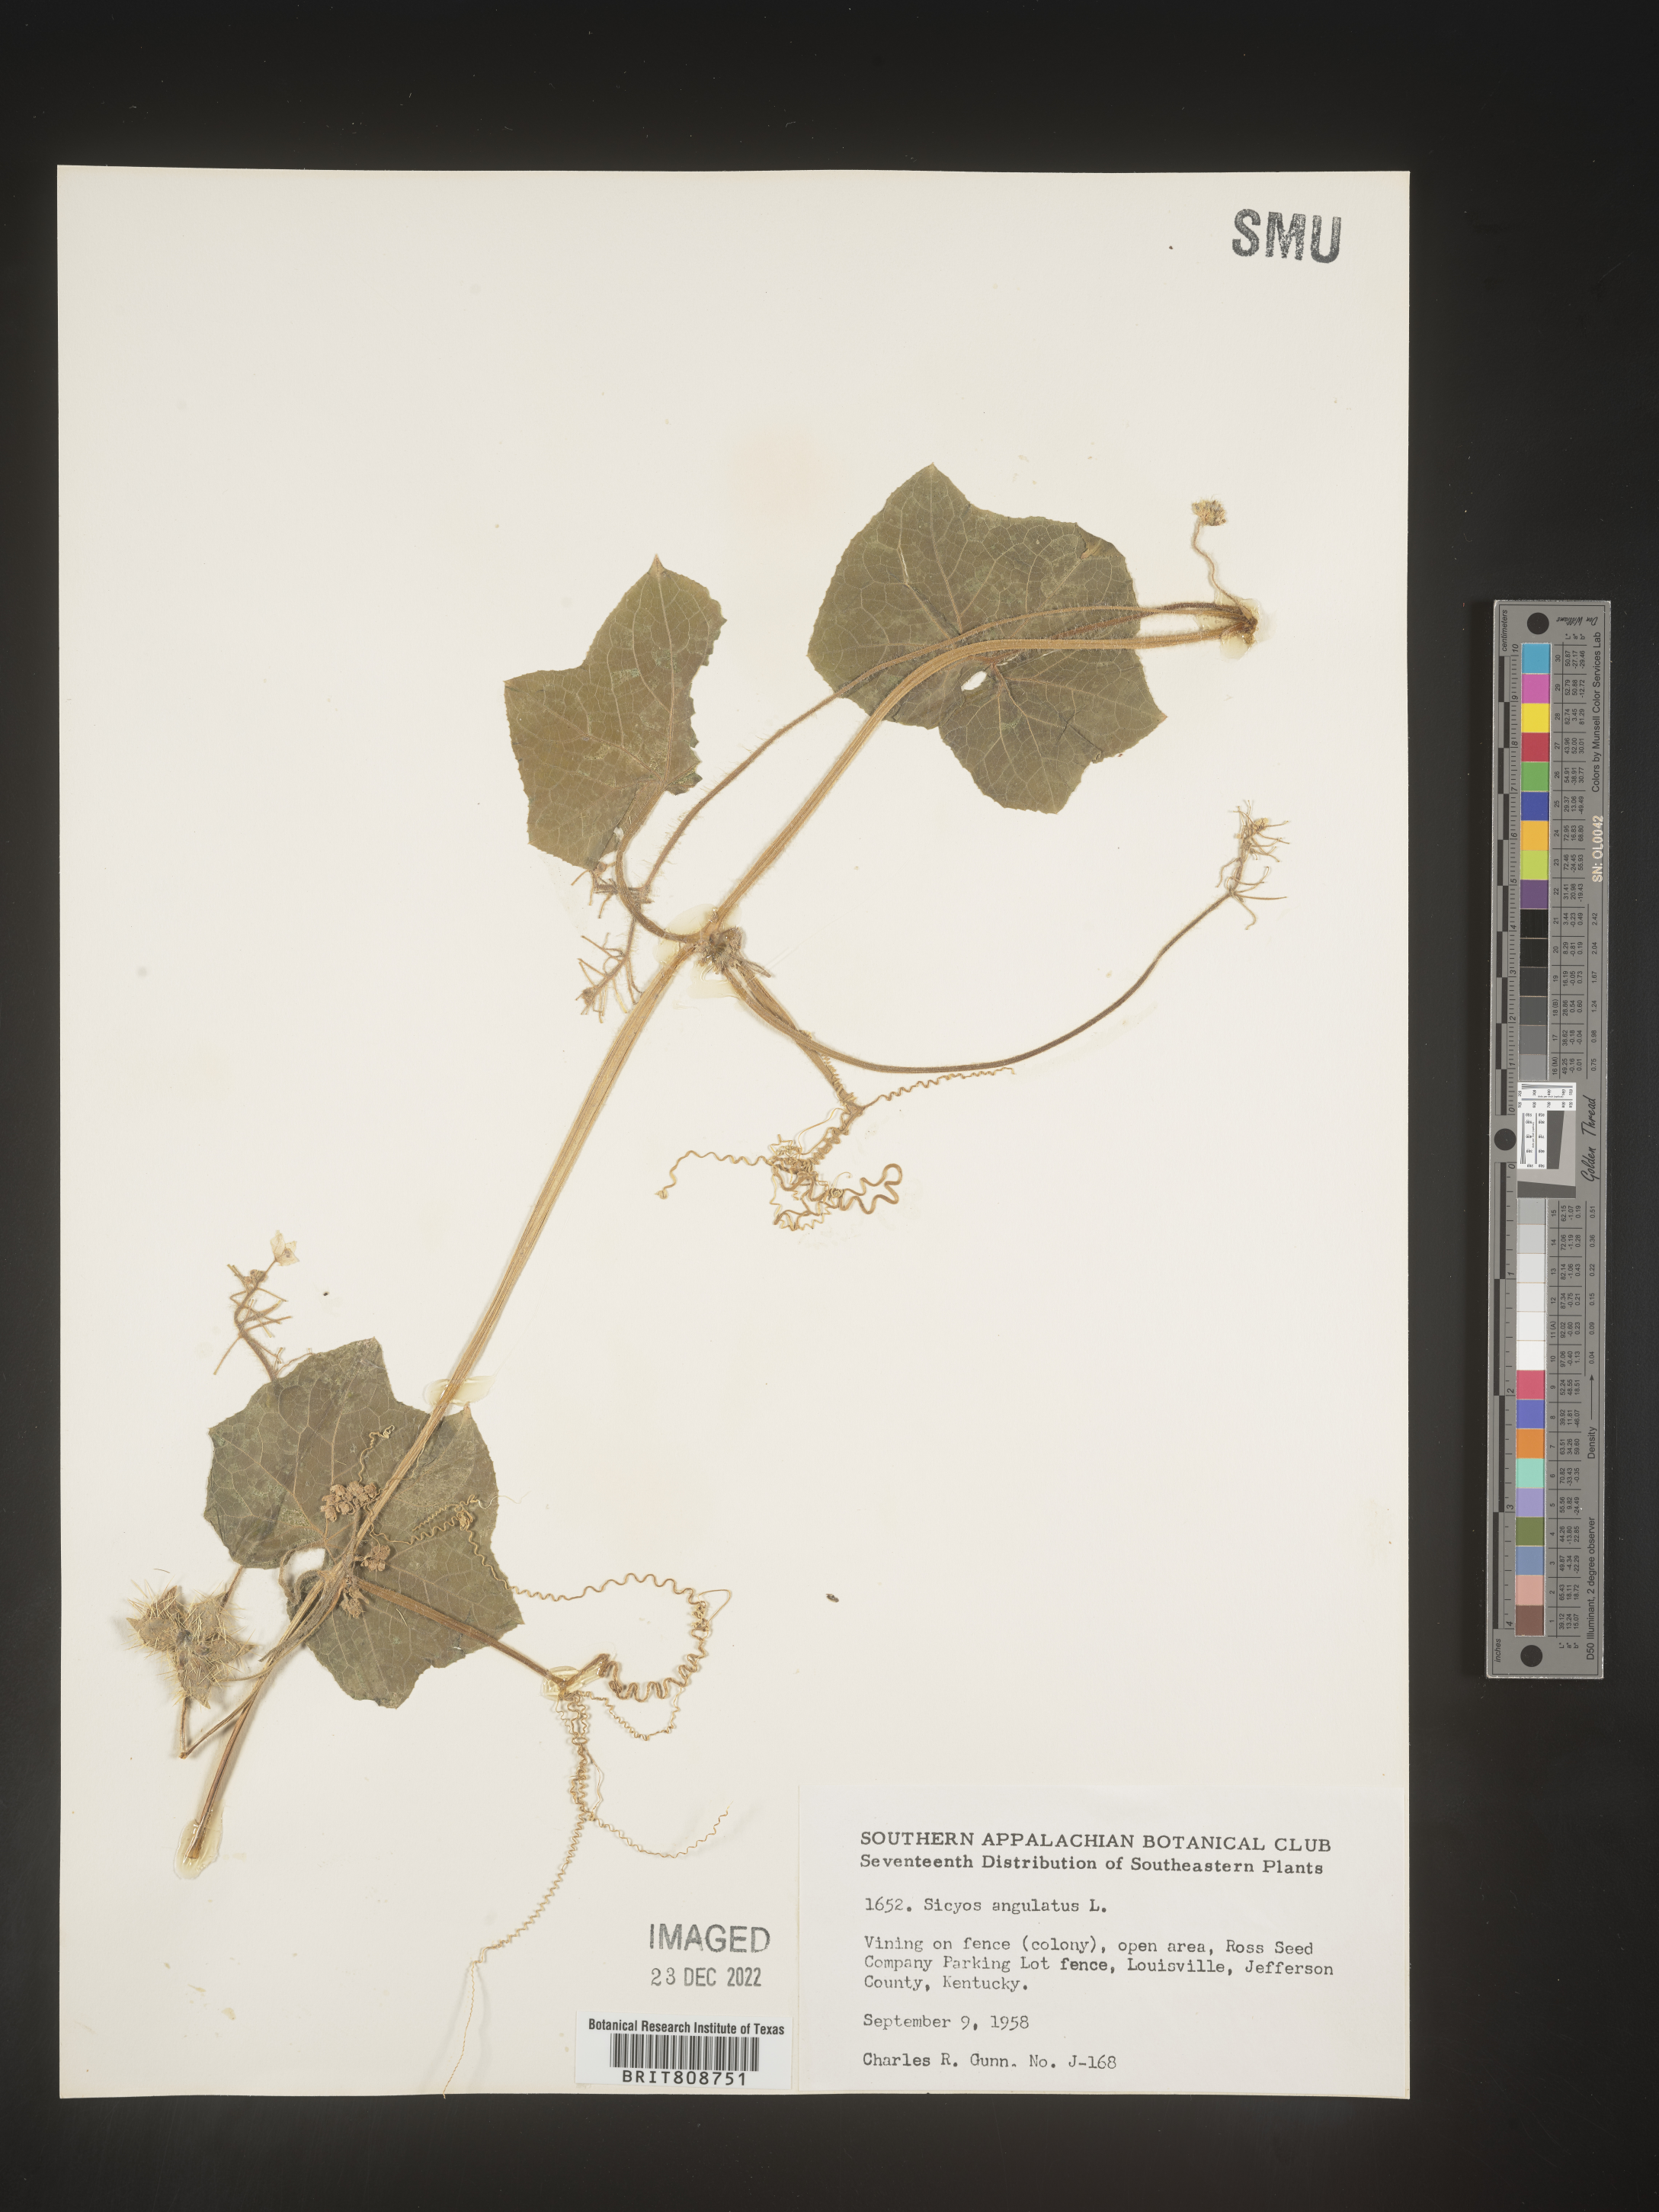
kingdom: Plantae
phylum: Tracheophyta
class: Magnoliopsida
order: Cucurbitales
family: Cucurbitaceae
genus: Sicyos
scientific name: Sicyos angulatus
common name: Angled burr cucumber
